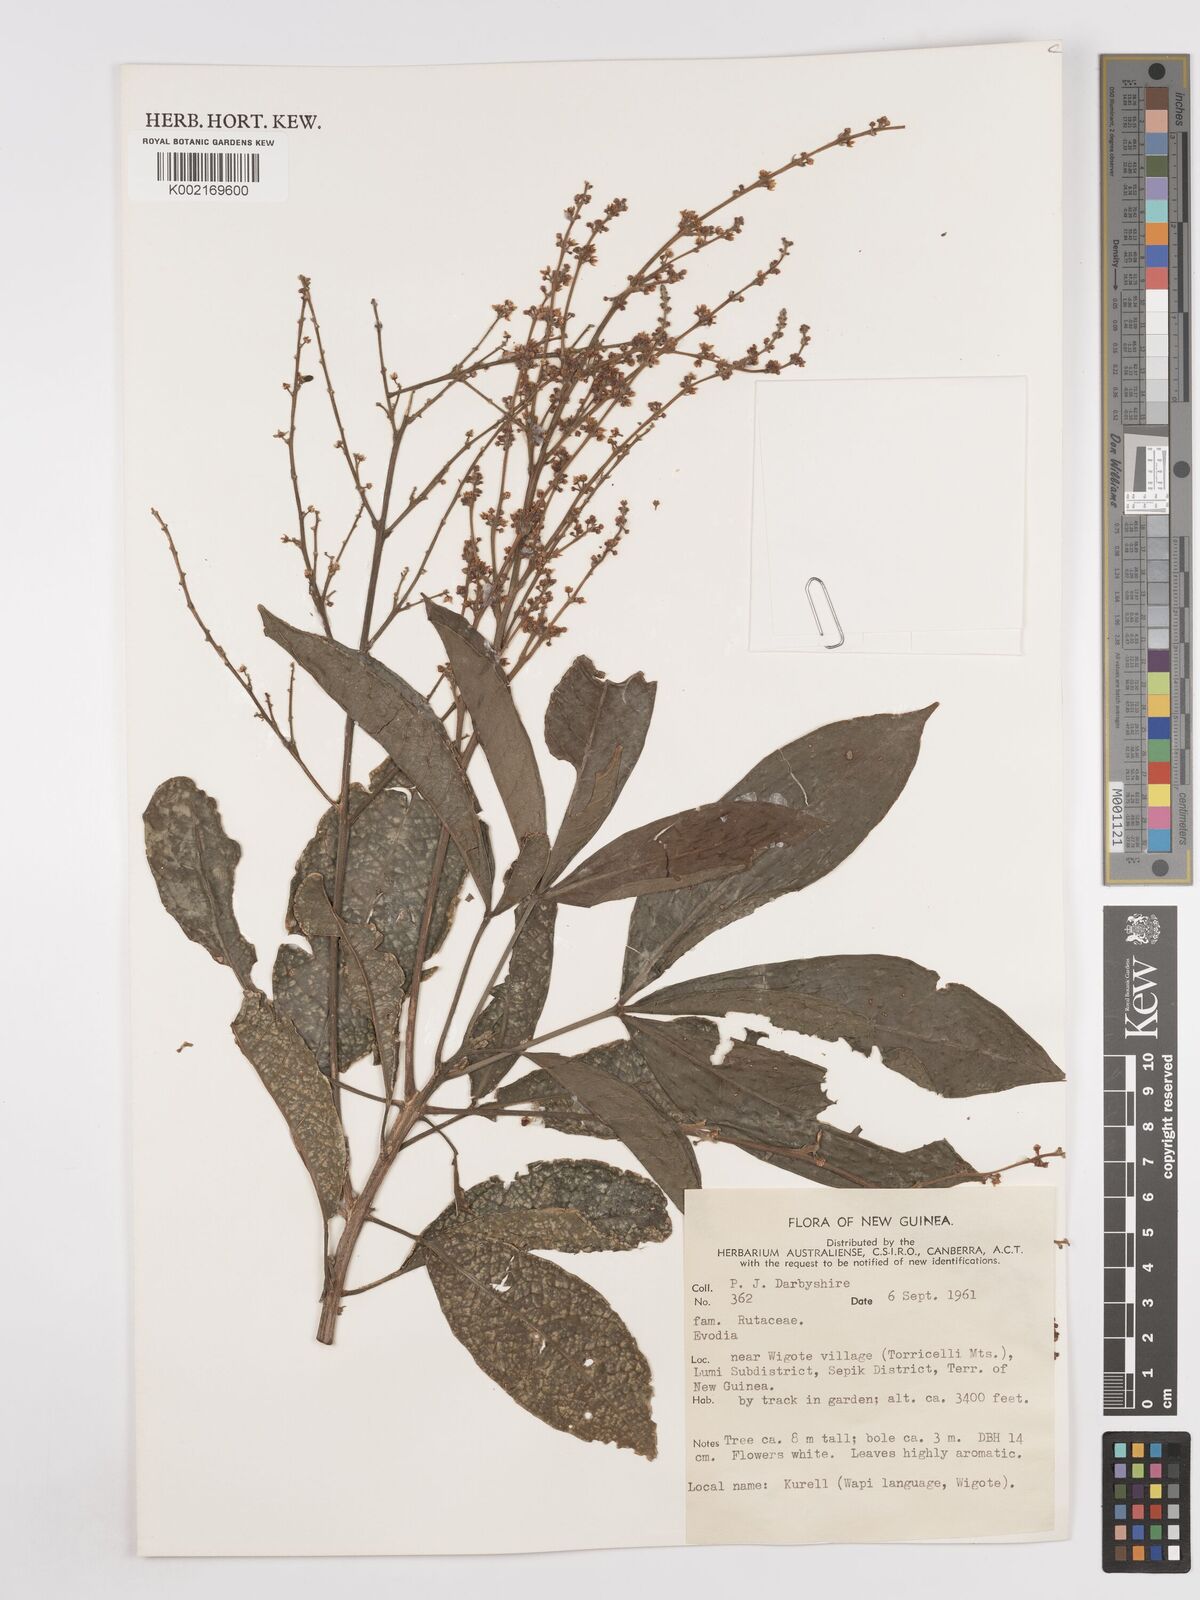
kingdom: Plantae
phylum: Tracheophyta
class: Magnoliopsida
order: Sapindales
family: Rutaceae
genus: Euodia
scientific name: Euodia
